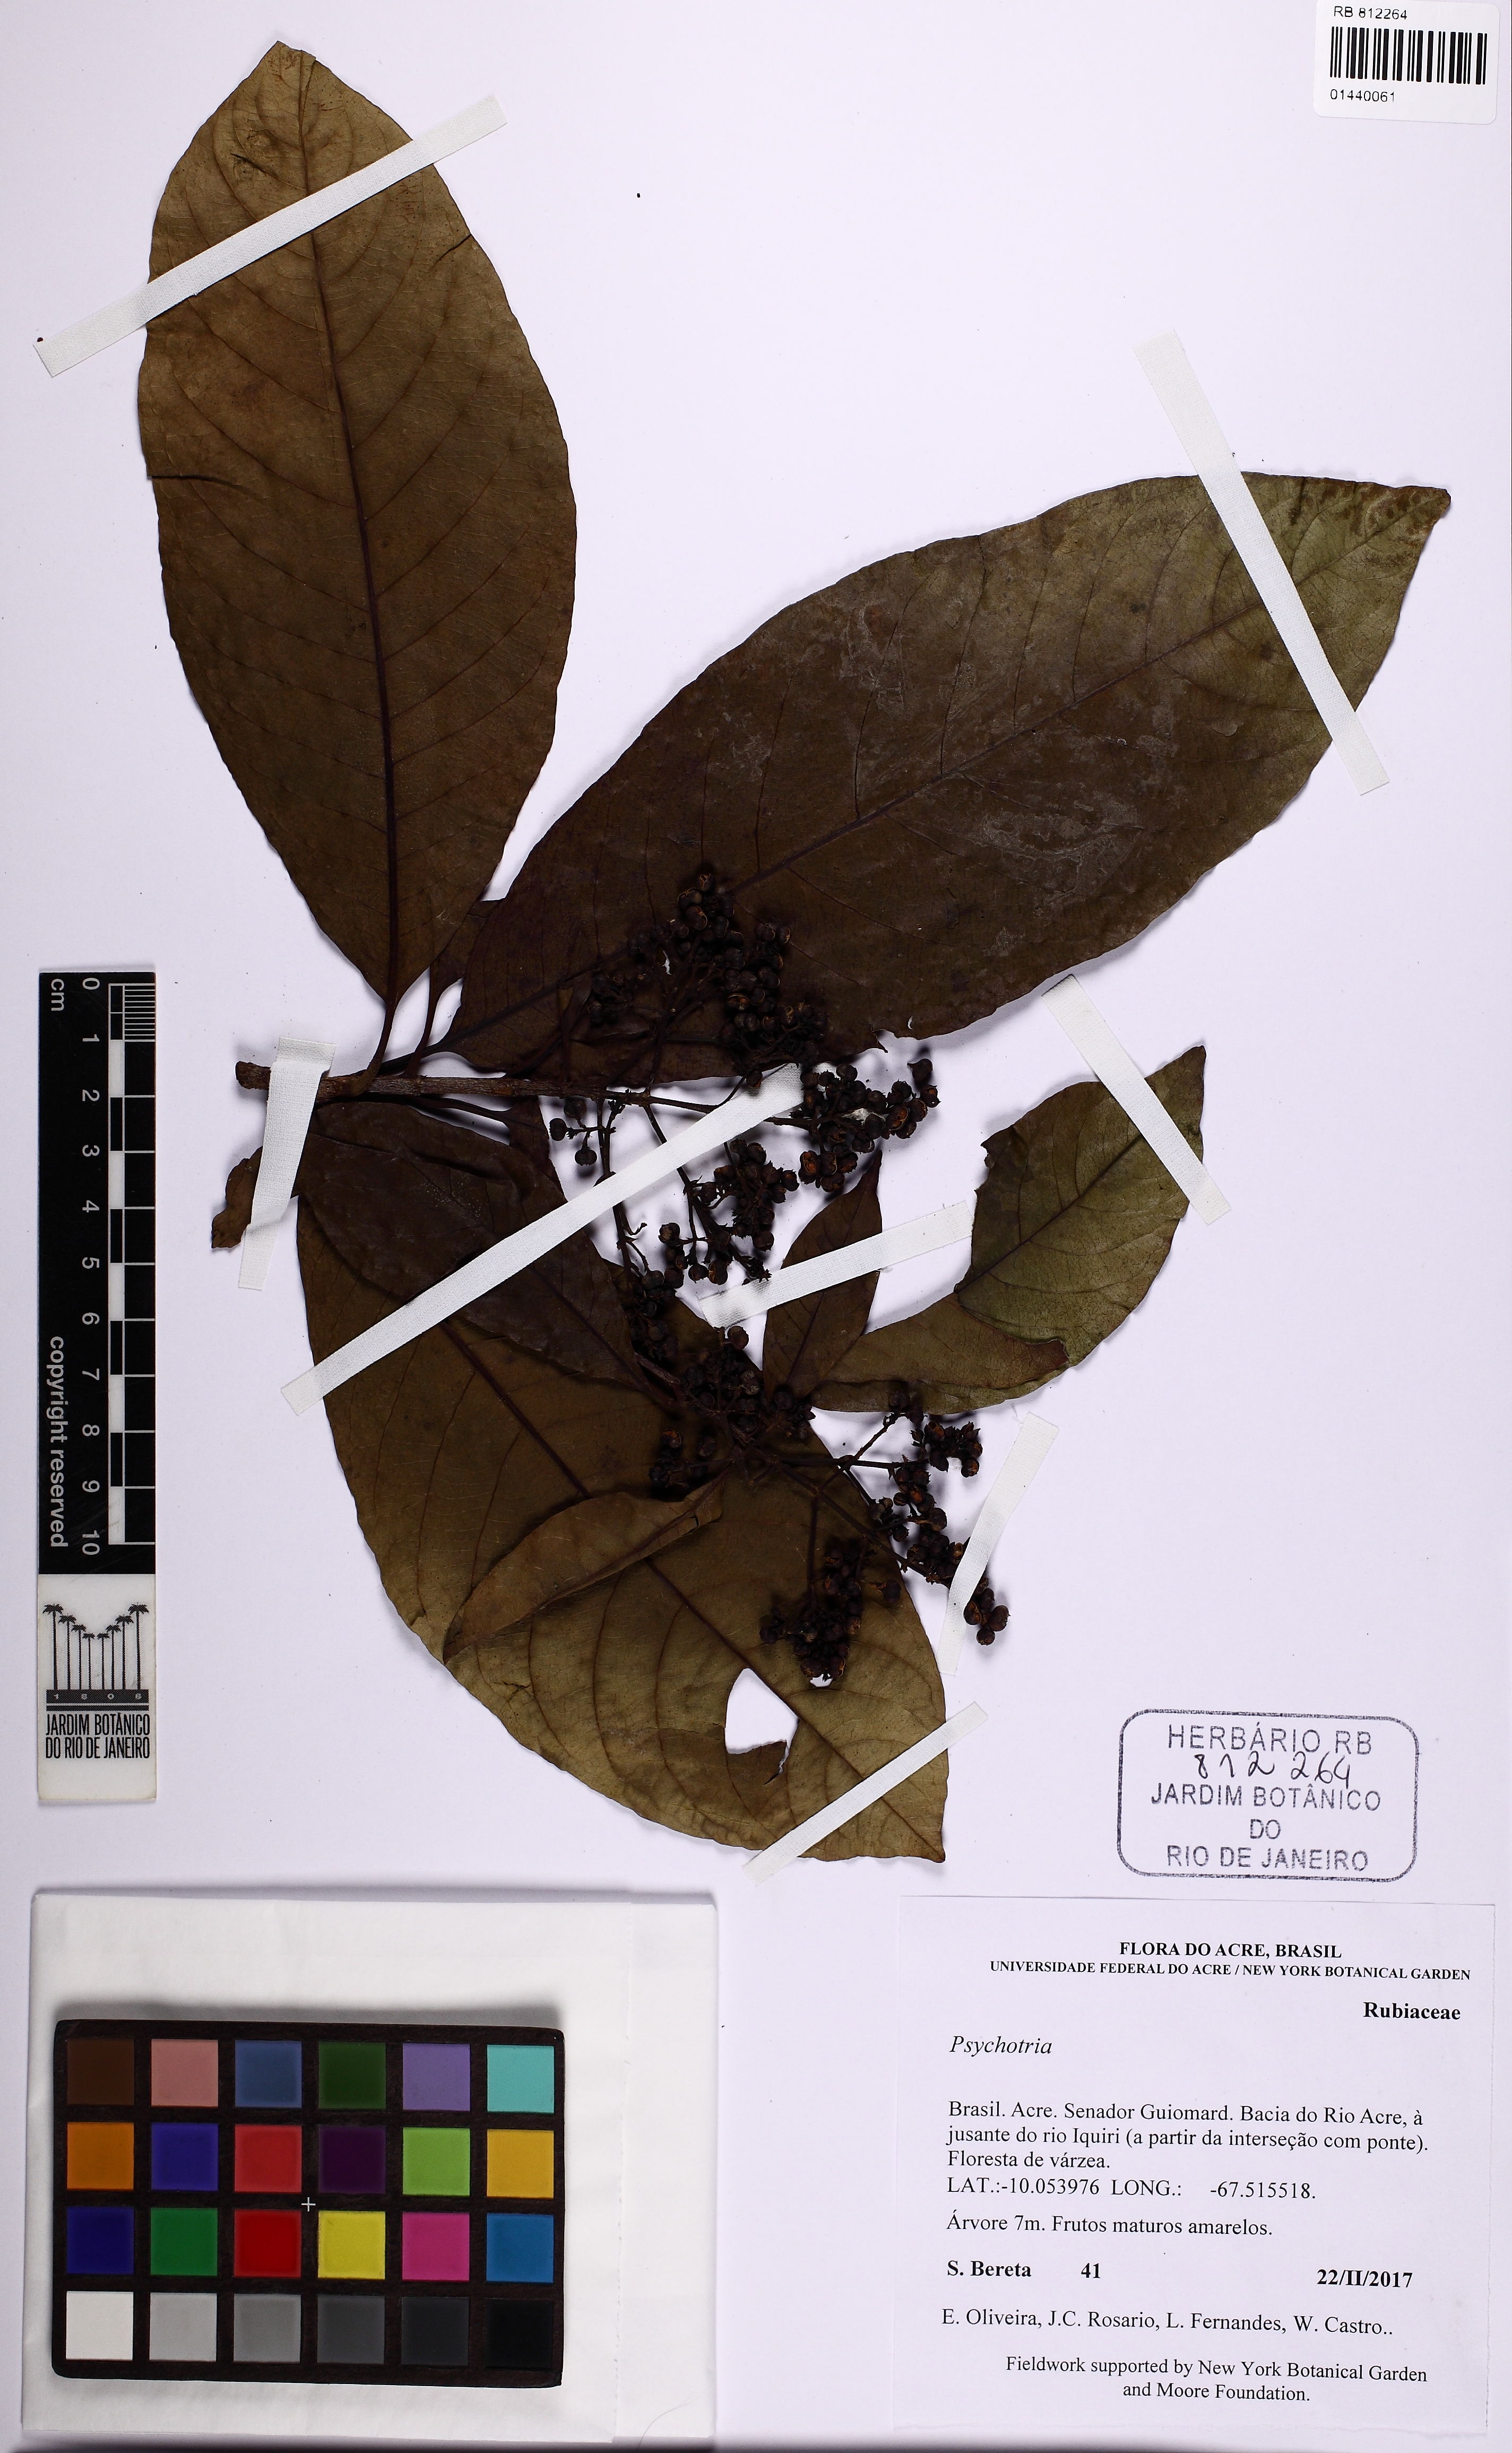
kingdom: Plantae
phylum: Tracheophyta
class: Magnoliopsida
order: Gentianales
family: Rubiaceae
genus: Psychotria
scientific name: Psychotria
